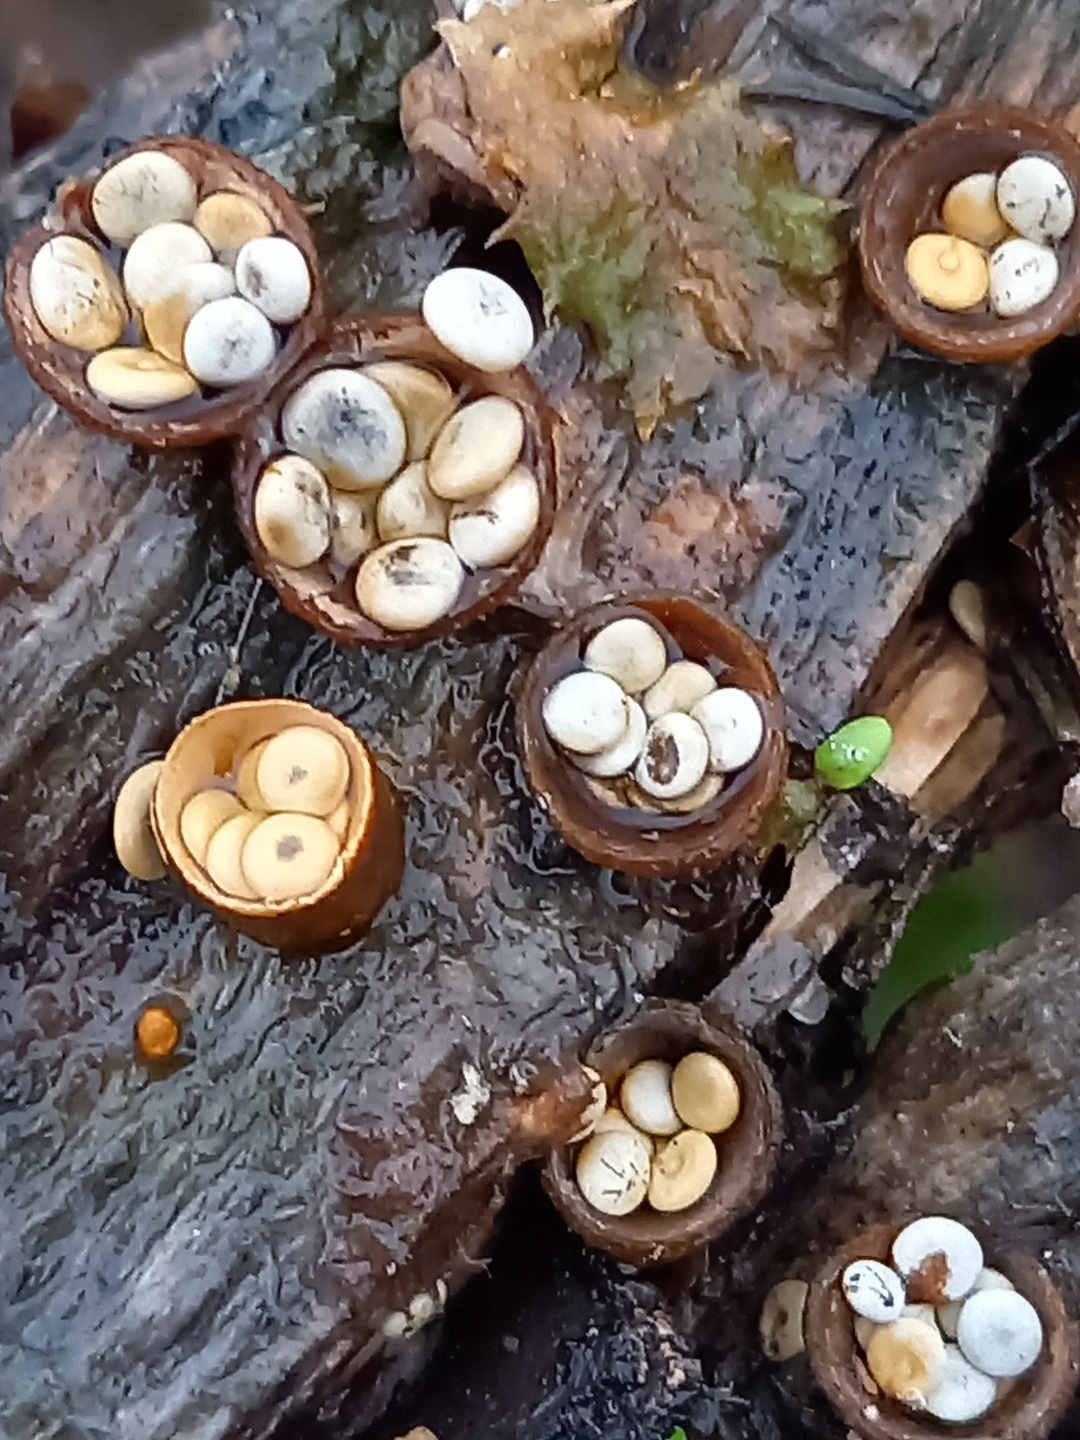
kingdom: Fungi
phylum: Basidiomycota
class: Agaricomycetes
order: Agaricales
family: Nidulariaceae
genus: Crucibulum
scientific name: Crucibulum crucibuliforme
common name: krukkesvamp
